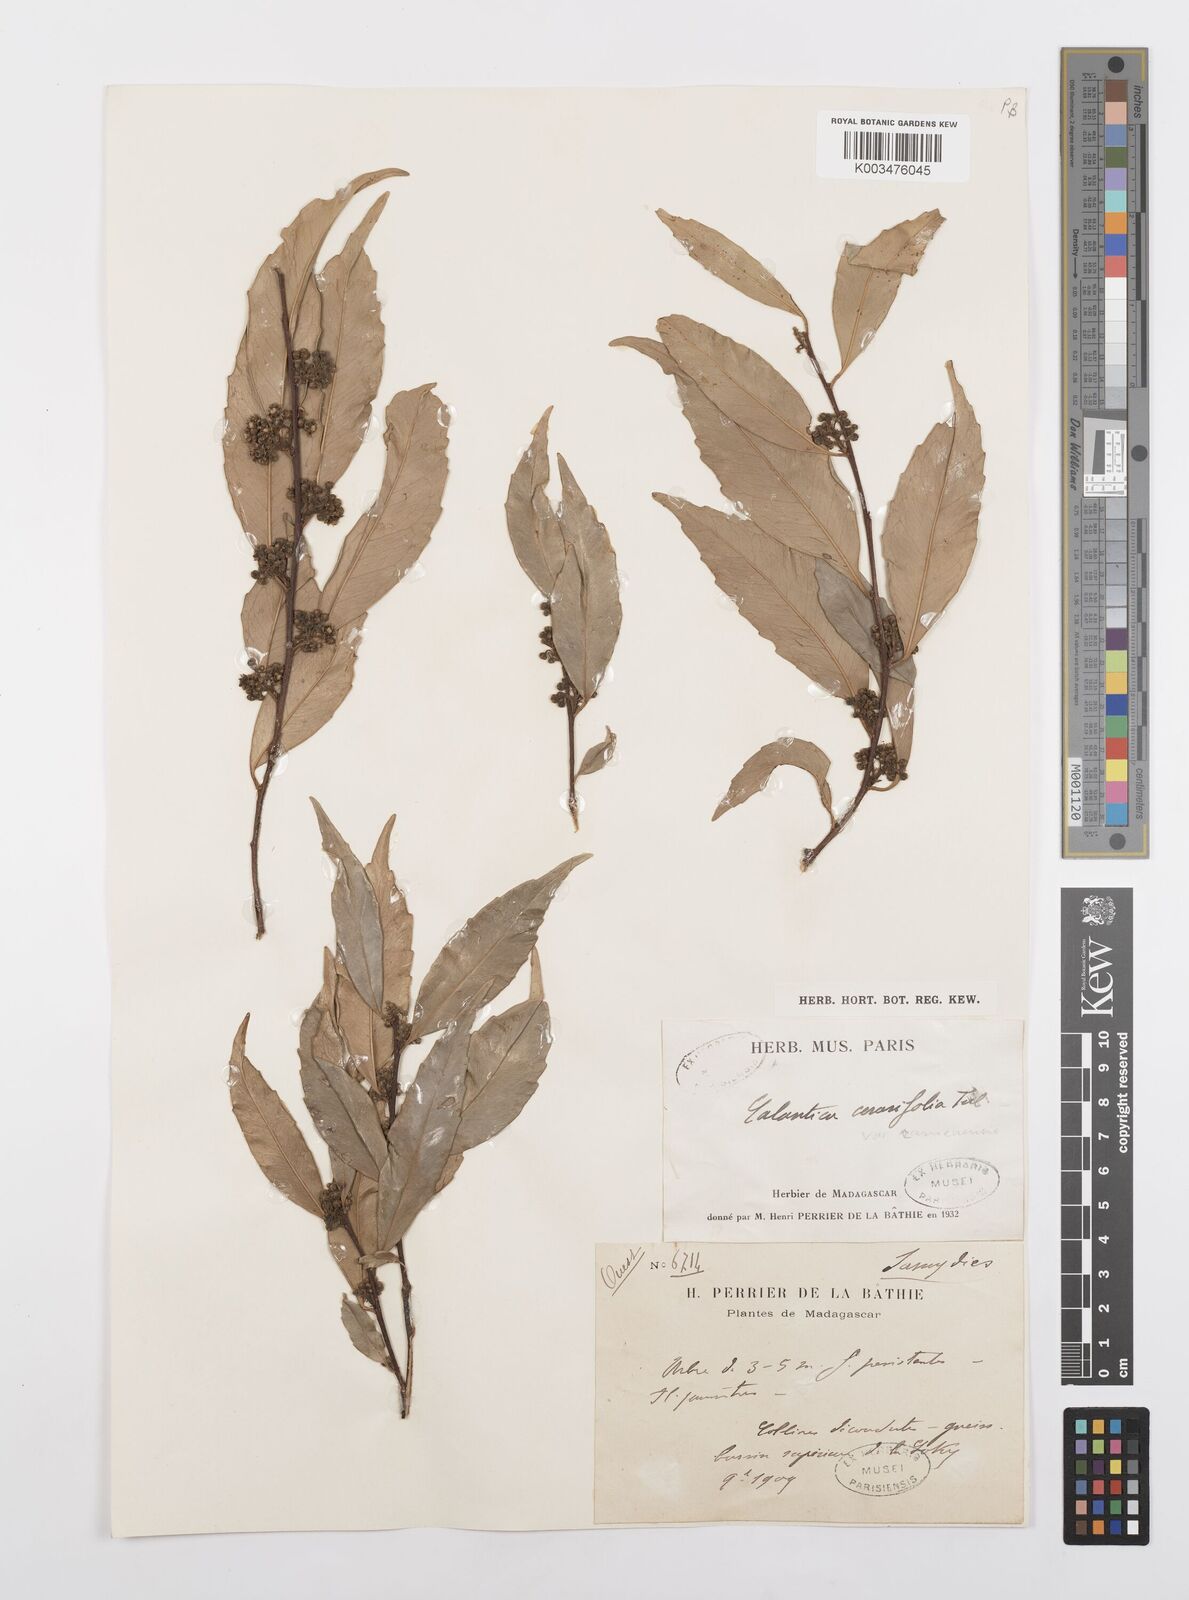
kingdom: Plantae
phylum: Tracheophyta
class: Magnoliopsida
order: Malpighiales
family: Salicaceae
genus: Calantica
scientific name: Calantica cerasifolia
